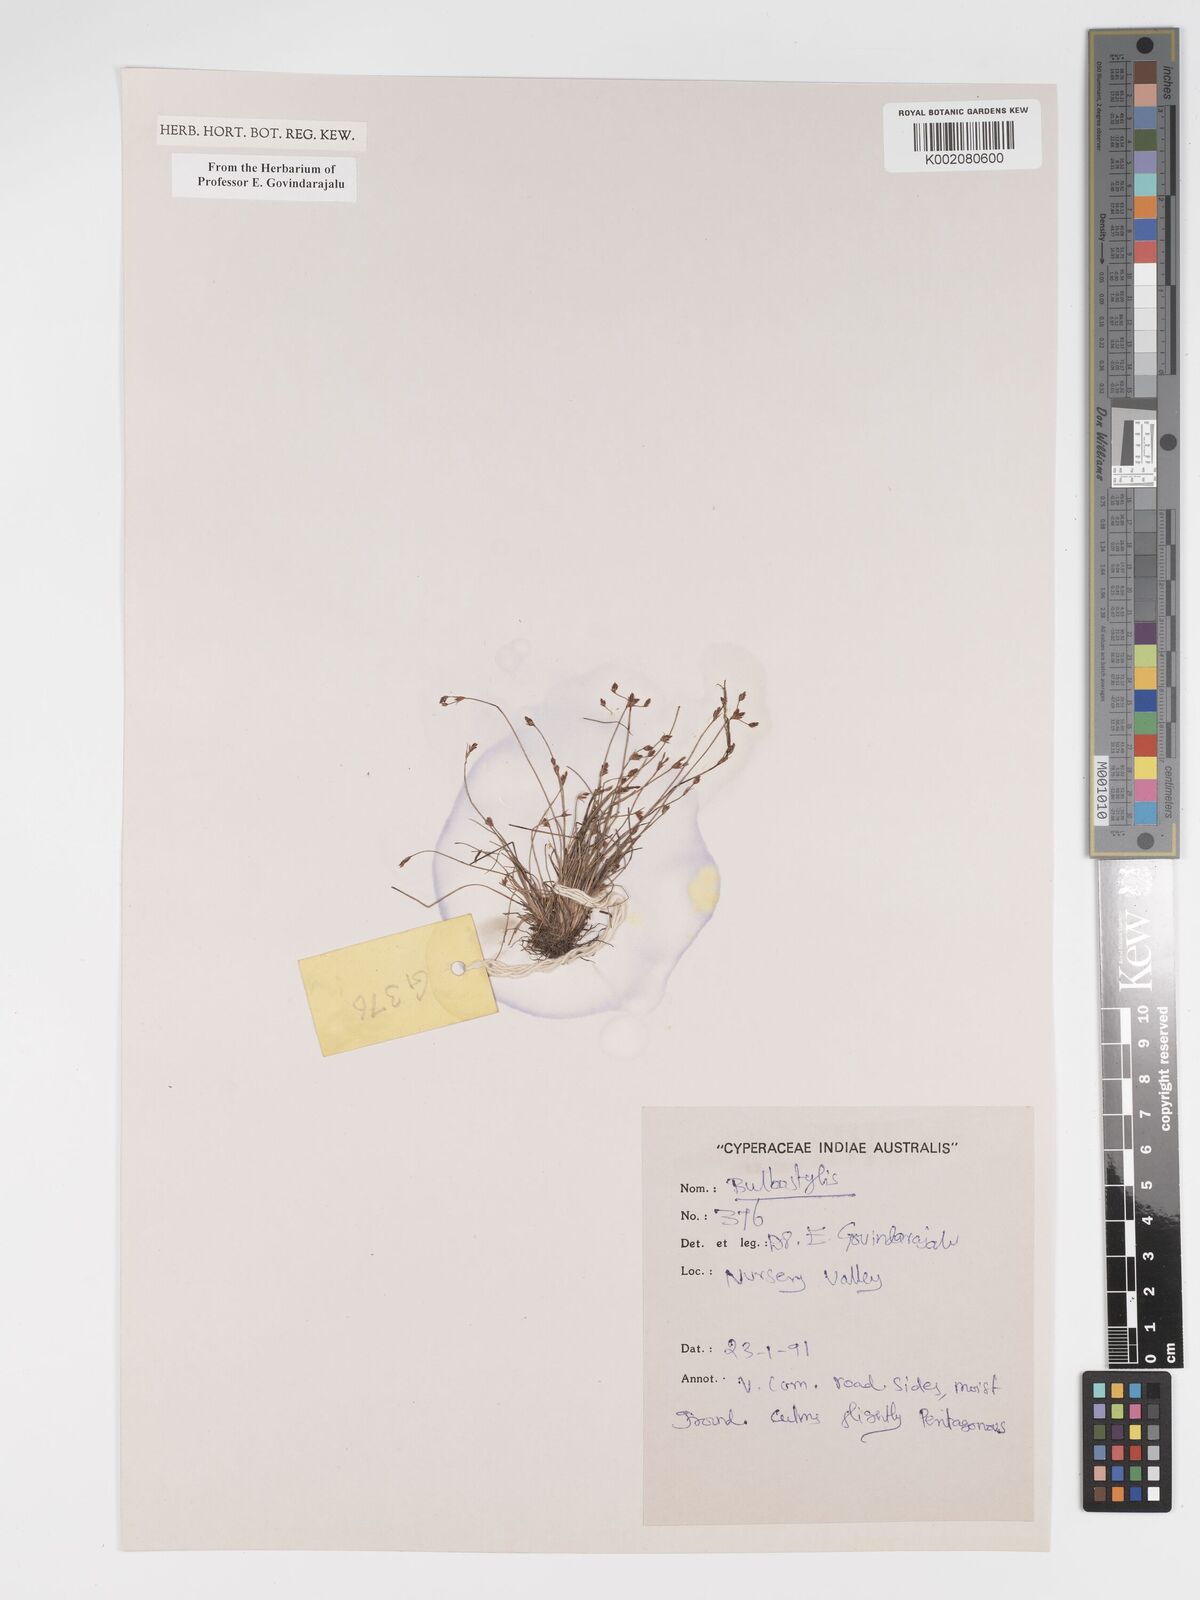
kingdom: Plantae
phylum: Tracheophyta
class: Liliopsida
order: Poales
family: Cyperaceae
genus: Bulbostylis
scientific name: Bulbostylis
